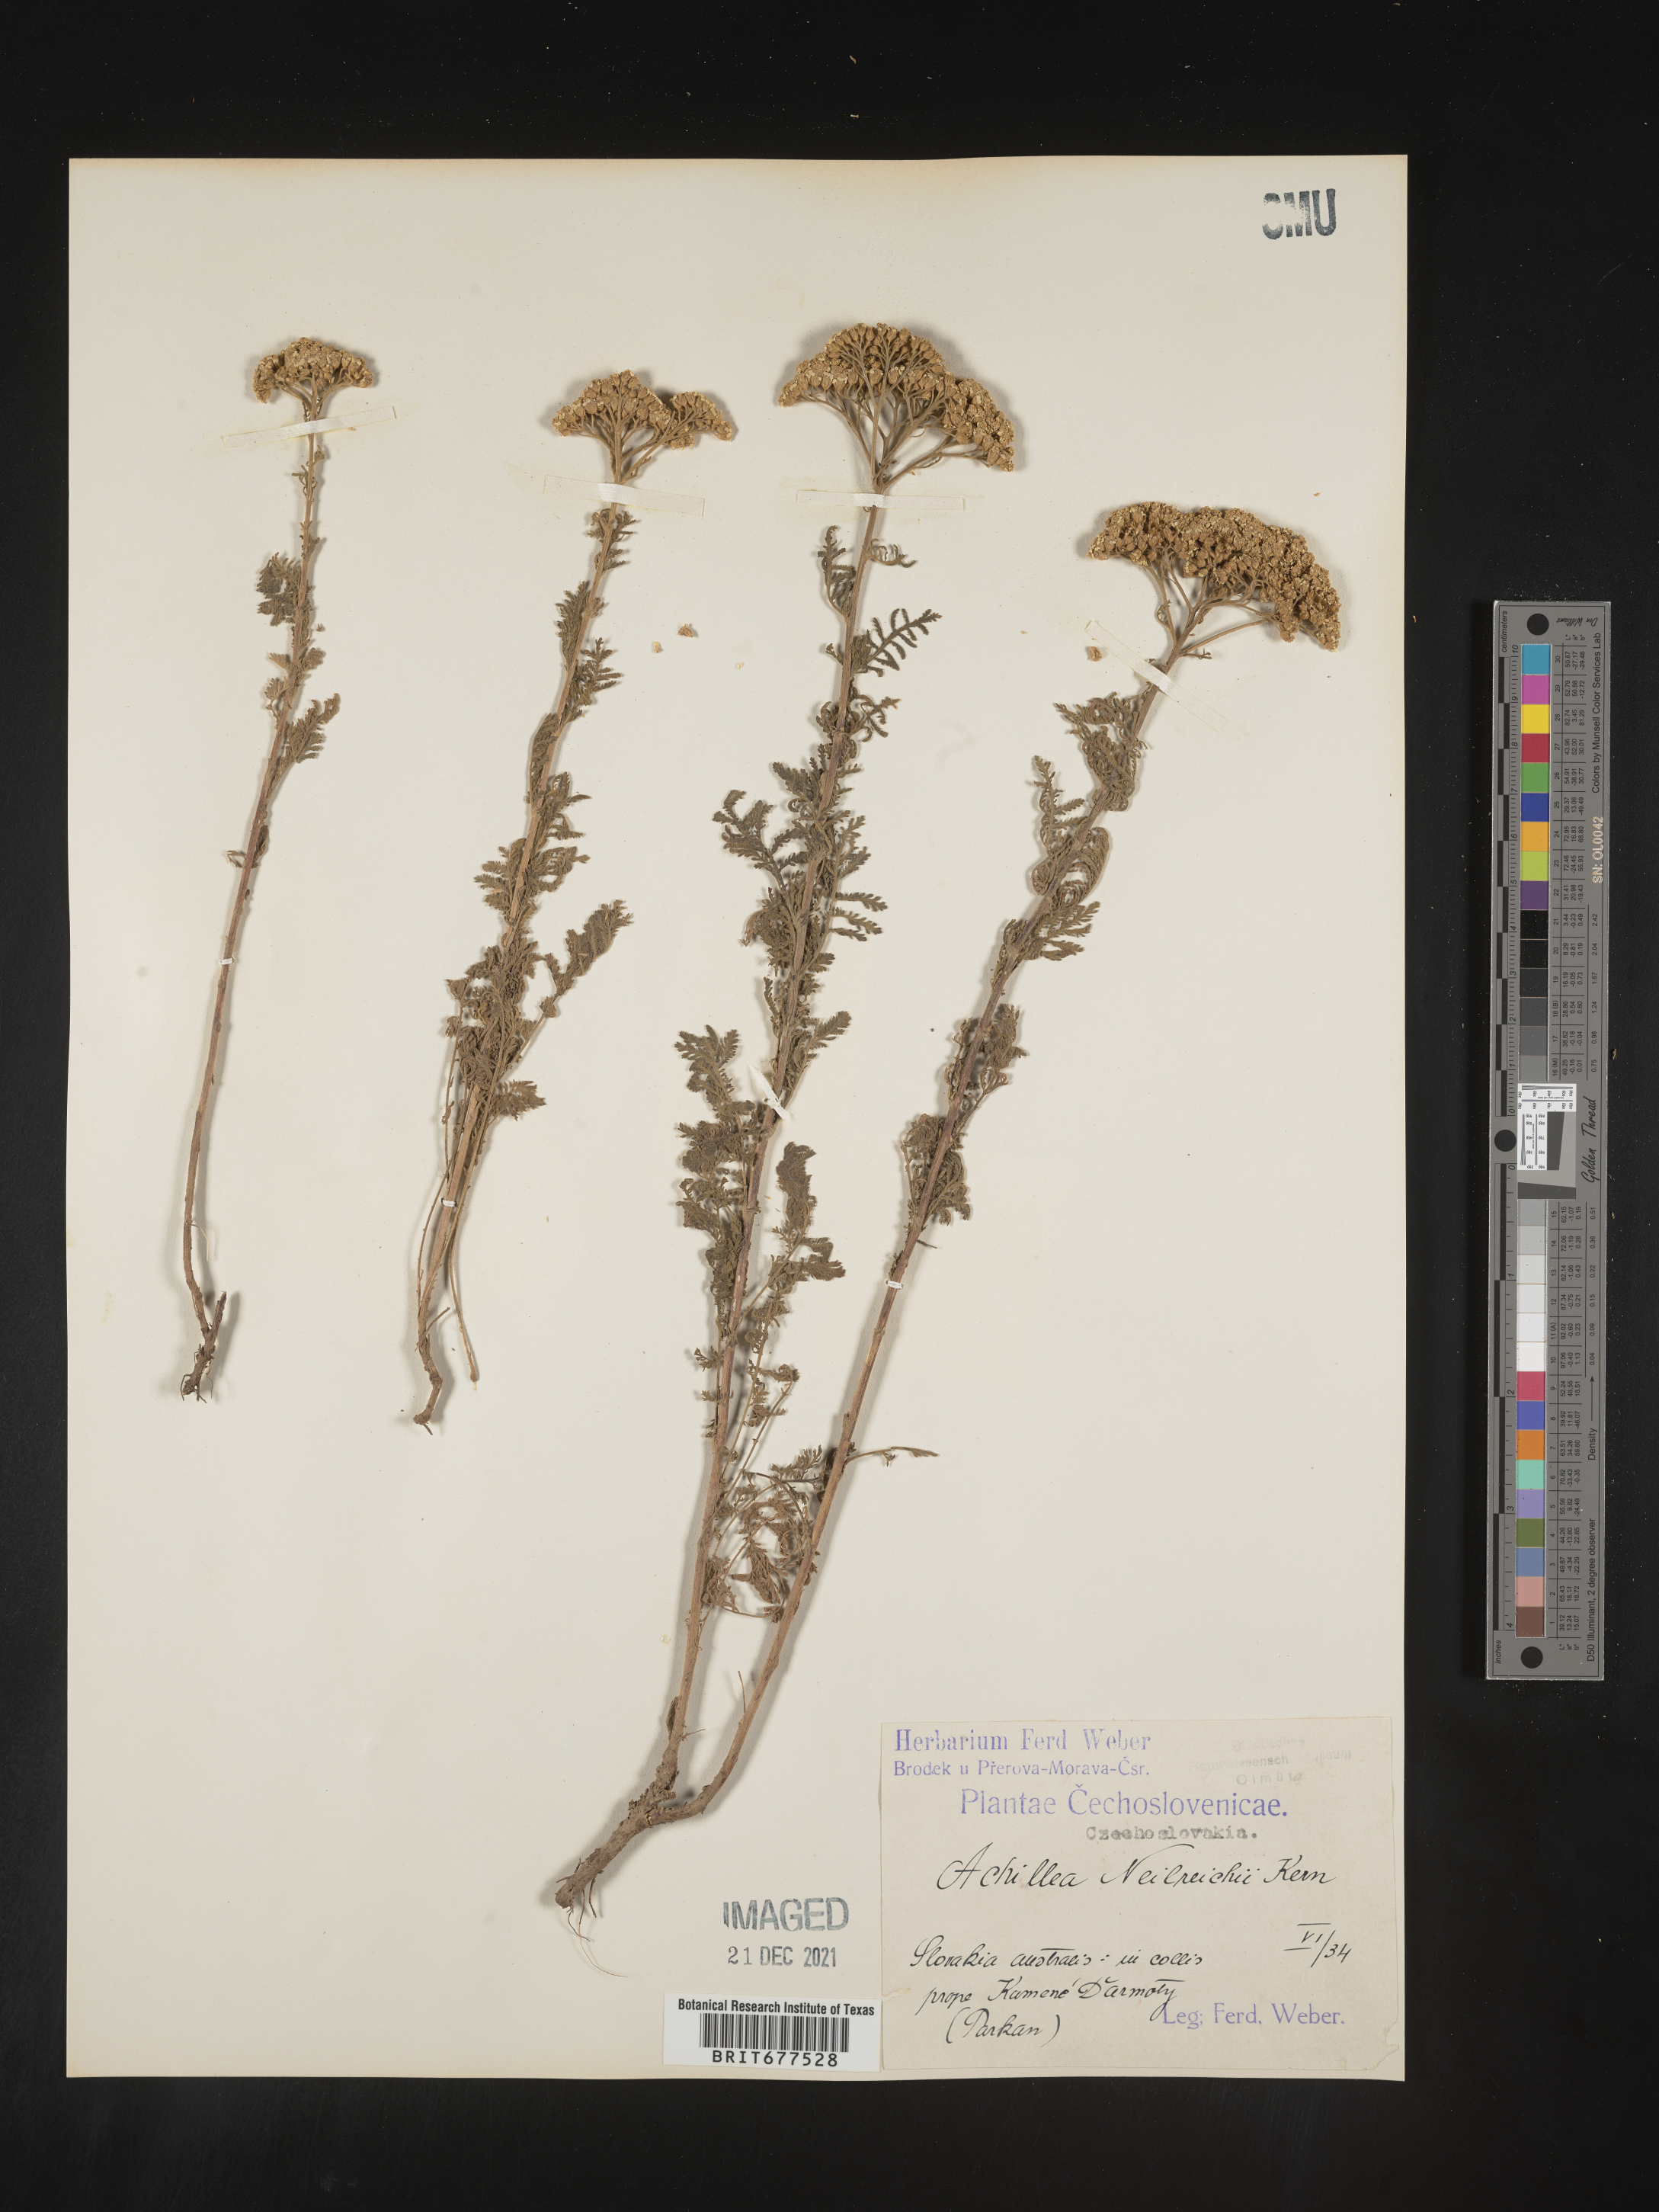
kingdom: Plantae
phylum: Tracheophyta
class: Magnoliopsida
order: Asterales
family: Asteraceae
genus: Achillea
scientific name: Achillea
